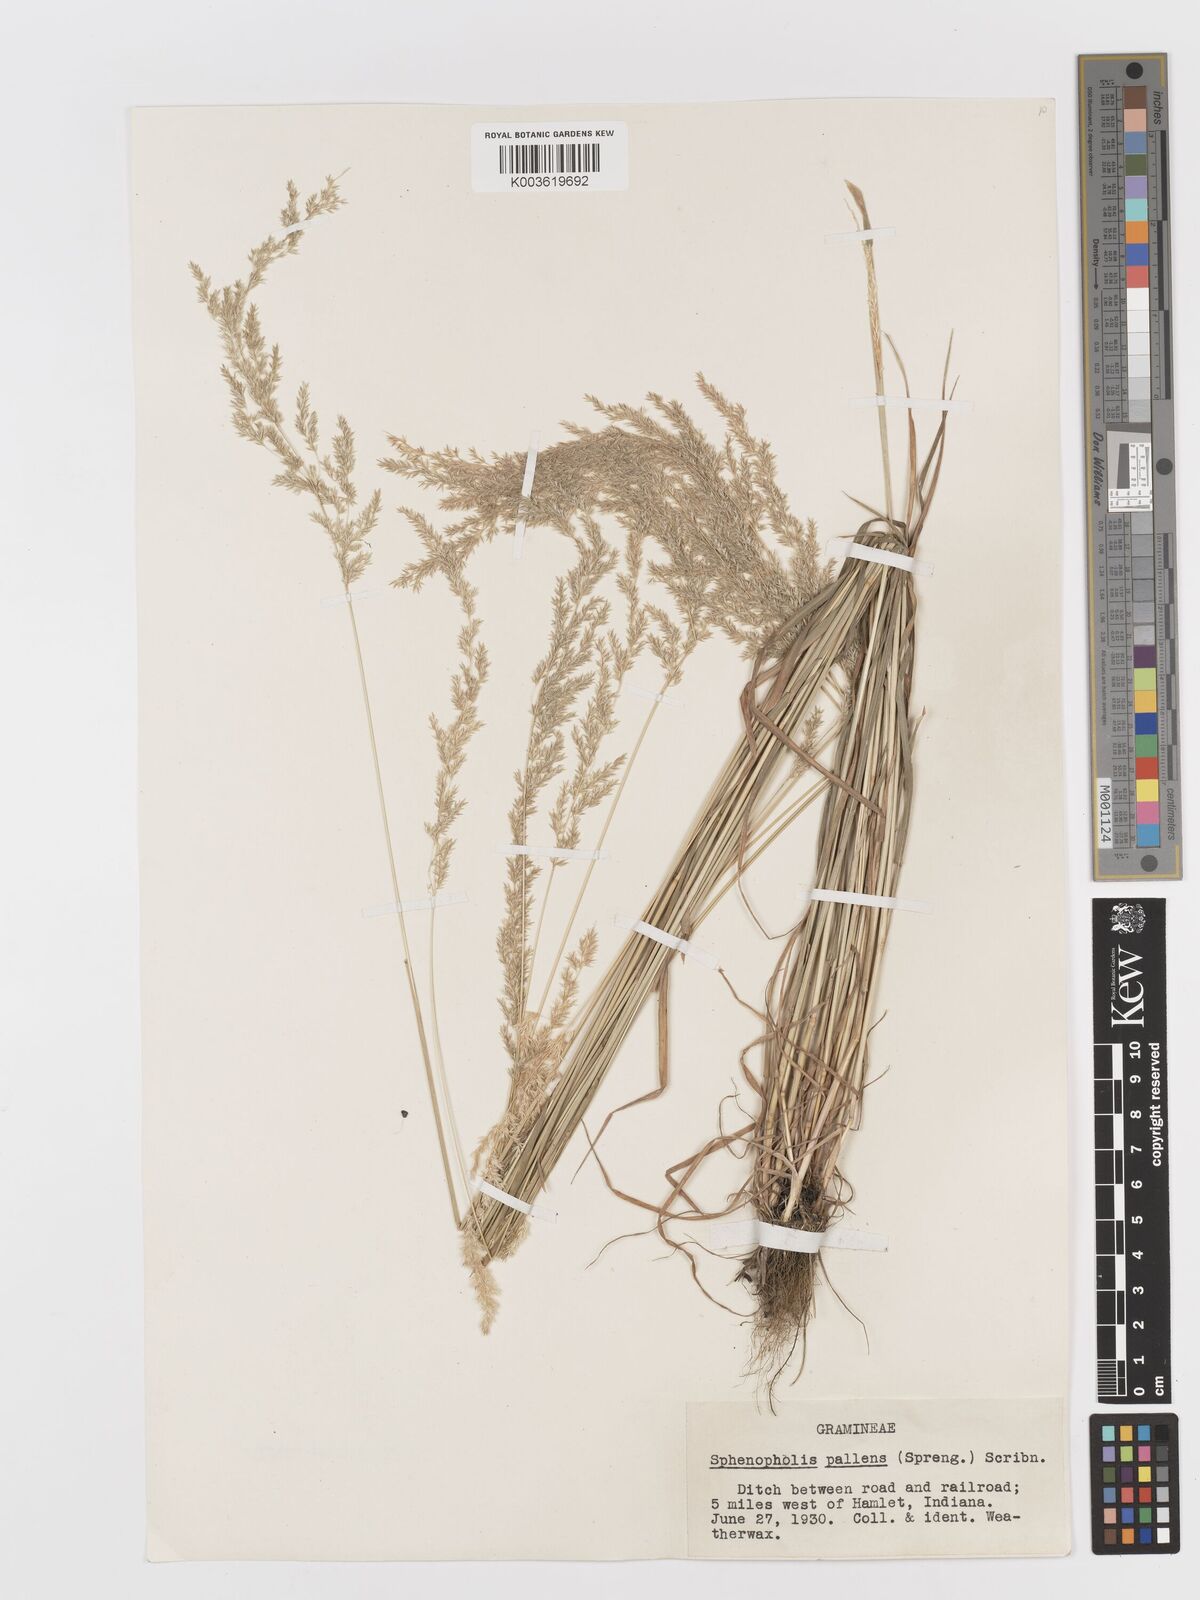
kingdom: Plantae
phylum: Tracheophyta
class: Liliopsida
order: Poales
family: Poaceae
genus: Sphenopholis
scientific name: Sphenopholis obtusata
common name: Prairie grass
